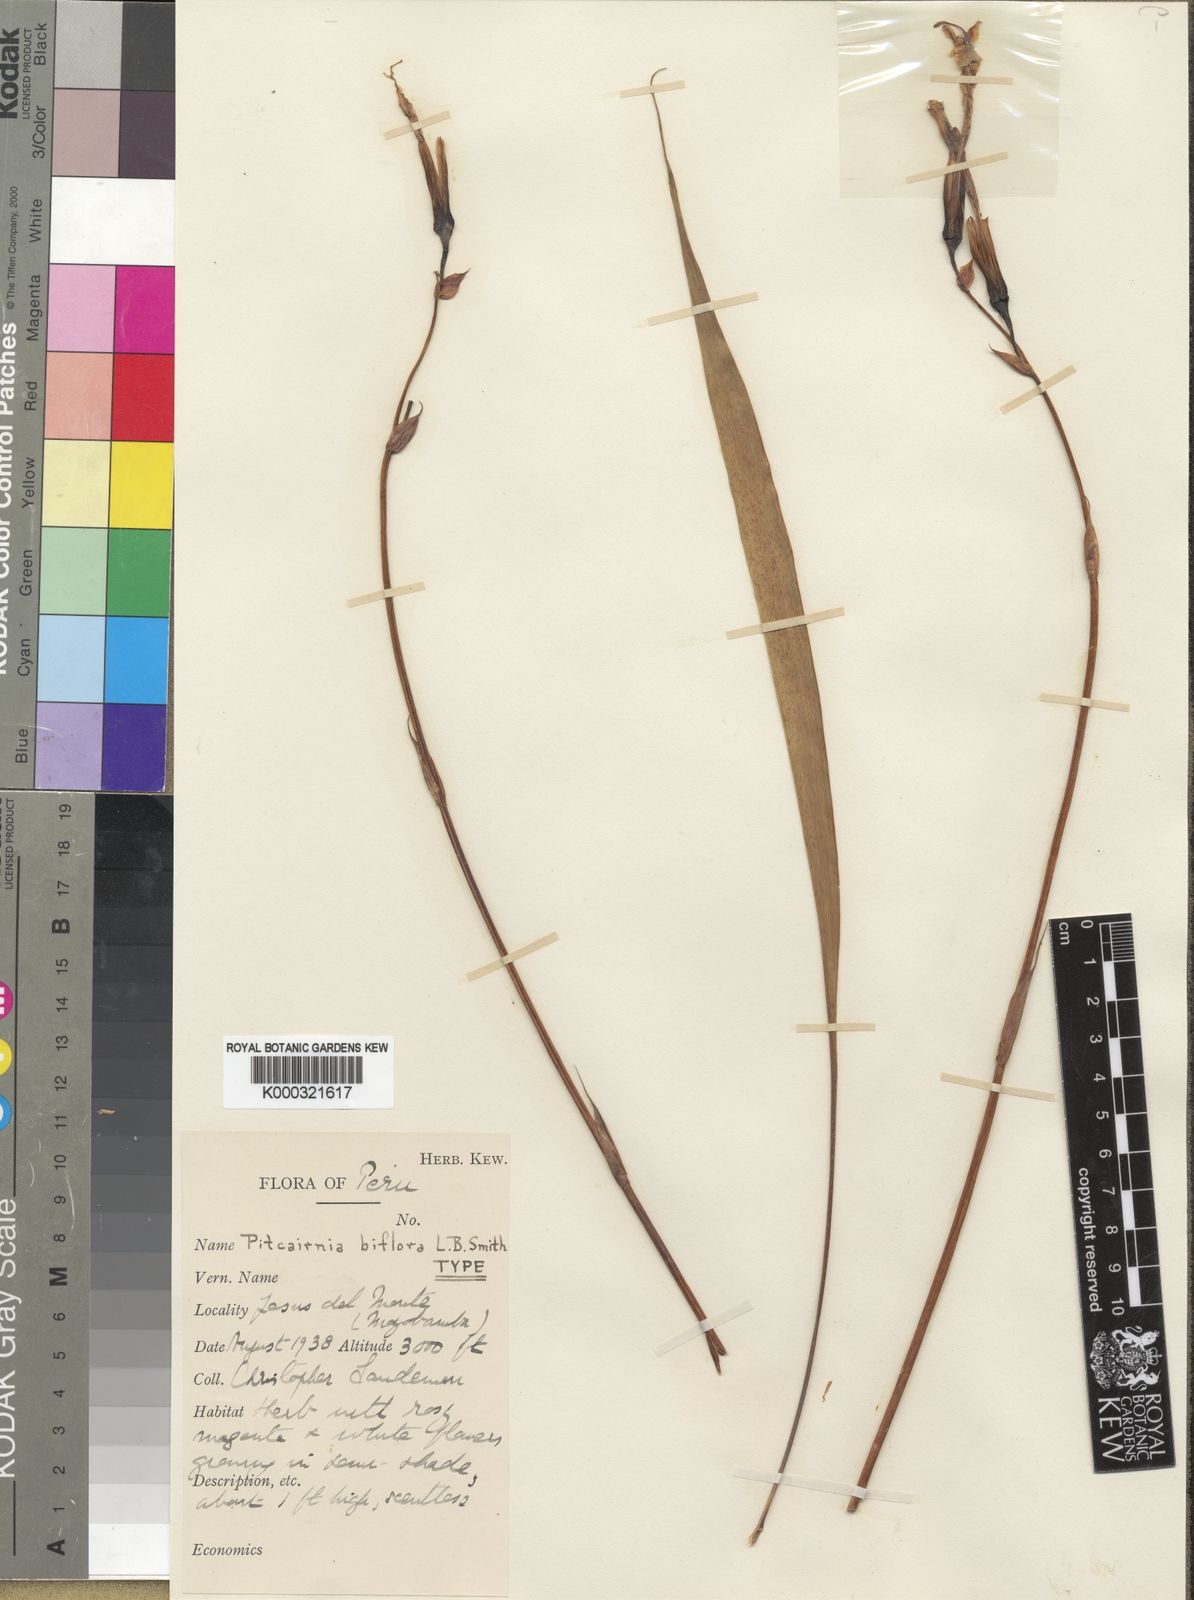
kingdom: Plantae
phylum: Tracheophyta
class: Liliopsida
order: Poales
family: Bromeliaceae
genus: Pitcairnia
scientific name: Pitcairnia biflora
